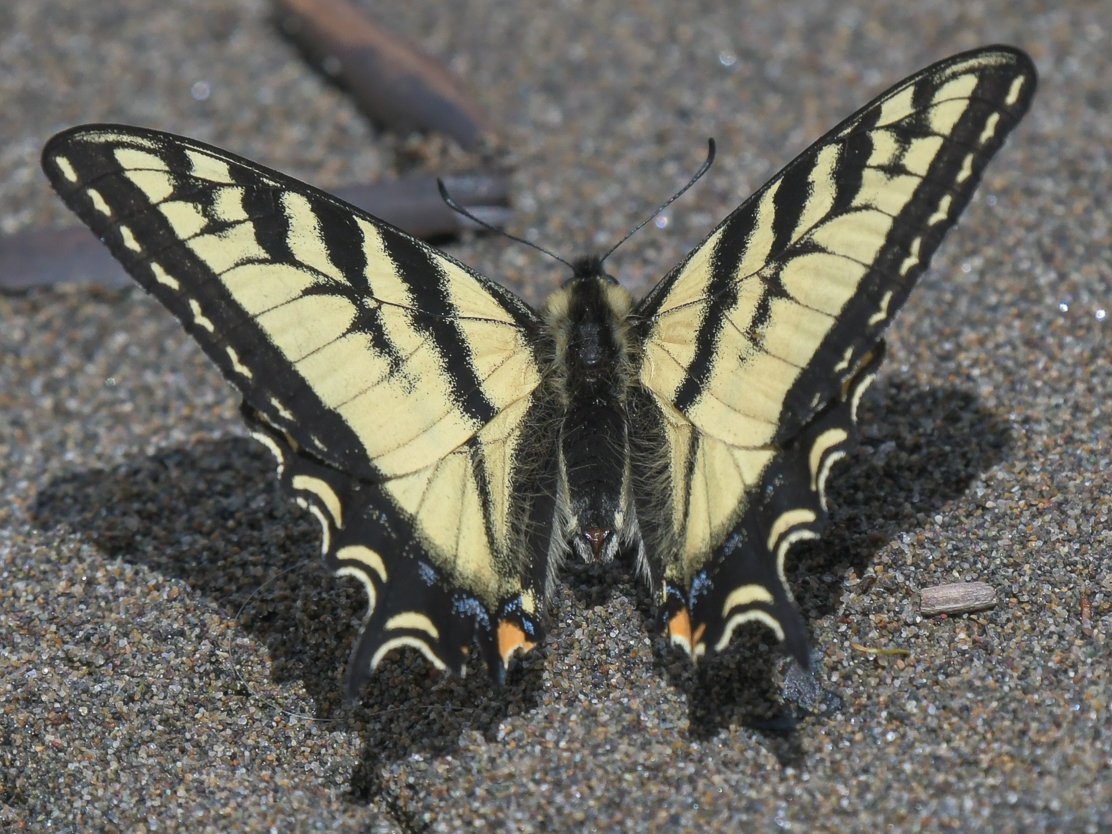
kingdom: Animalia
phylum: Arthropoda
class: Insecta
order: Lepidoptera
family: Papilionidae
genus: Pterourus
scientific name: Pterourus canadensis
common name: Canadian Tiger Swallowtail
